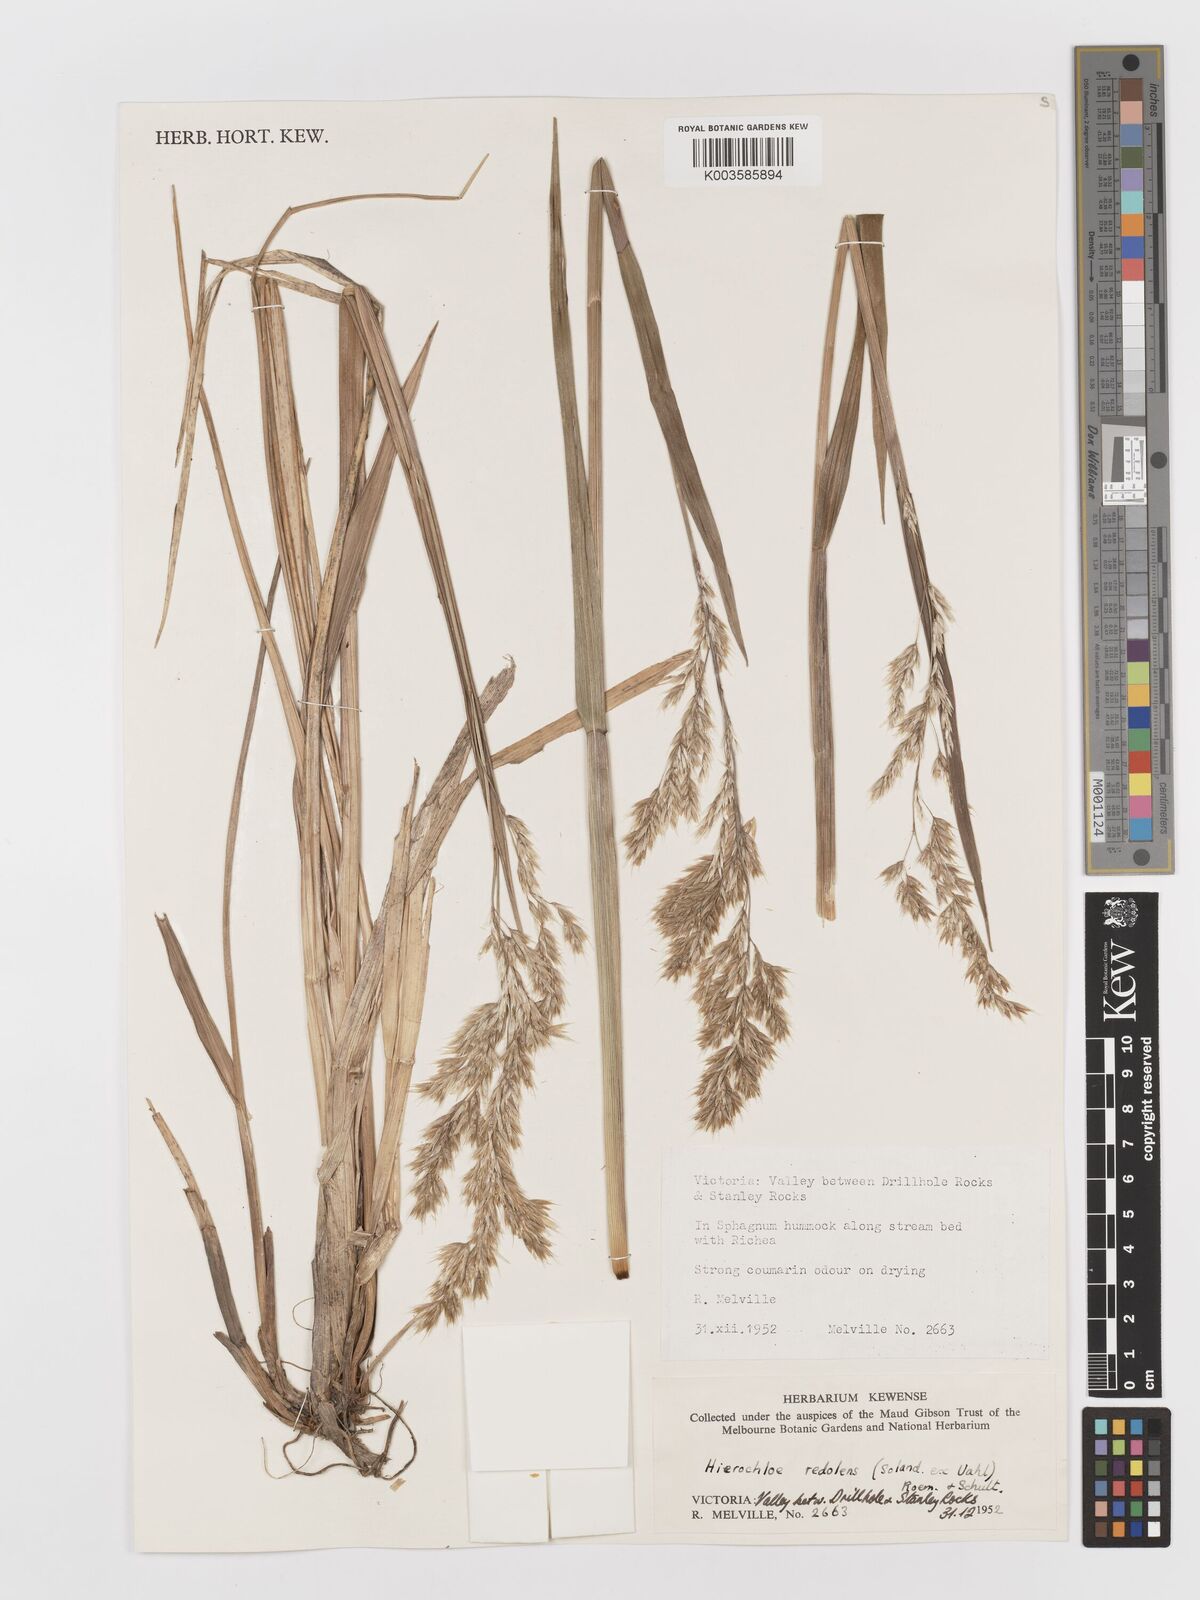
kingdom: Plantae
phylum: Tracheophyta
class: Liliopsida
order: Poales
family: Poaceae
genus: Anthoxanthum
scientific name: Anthoxanthum redolens
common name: Sweet holy grass
